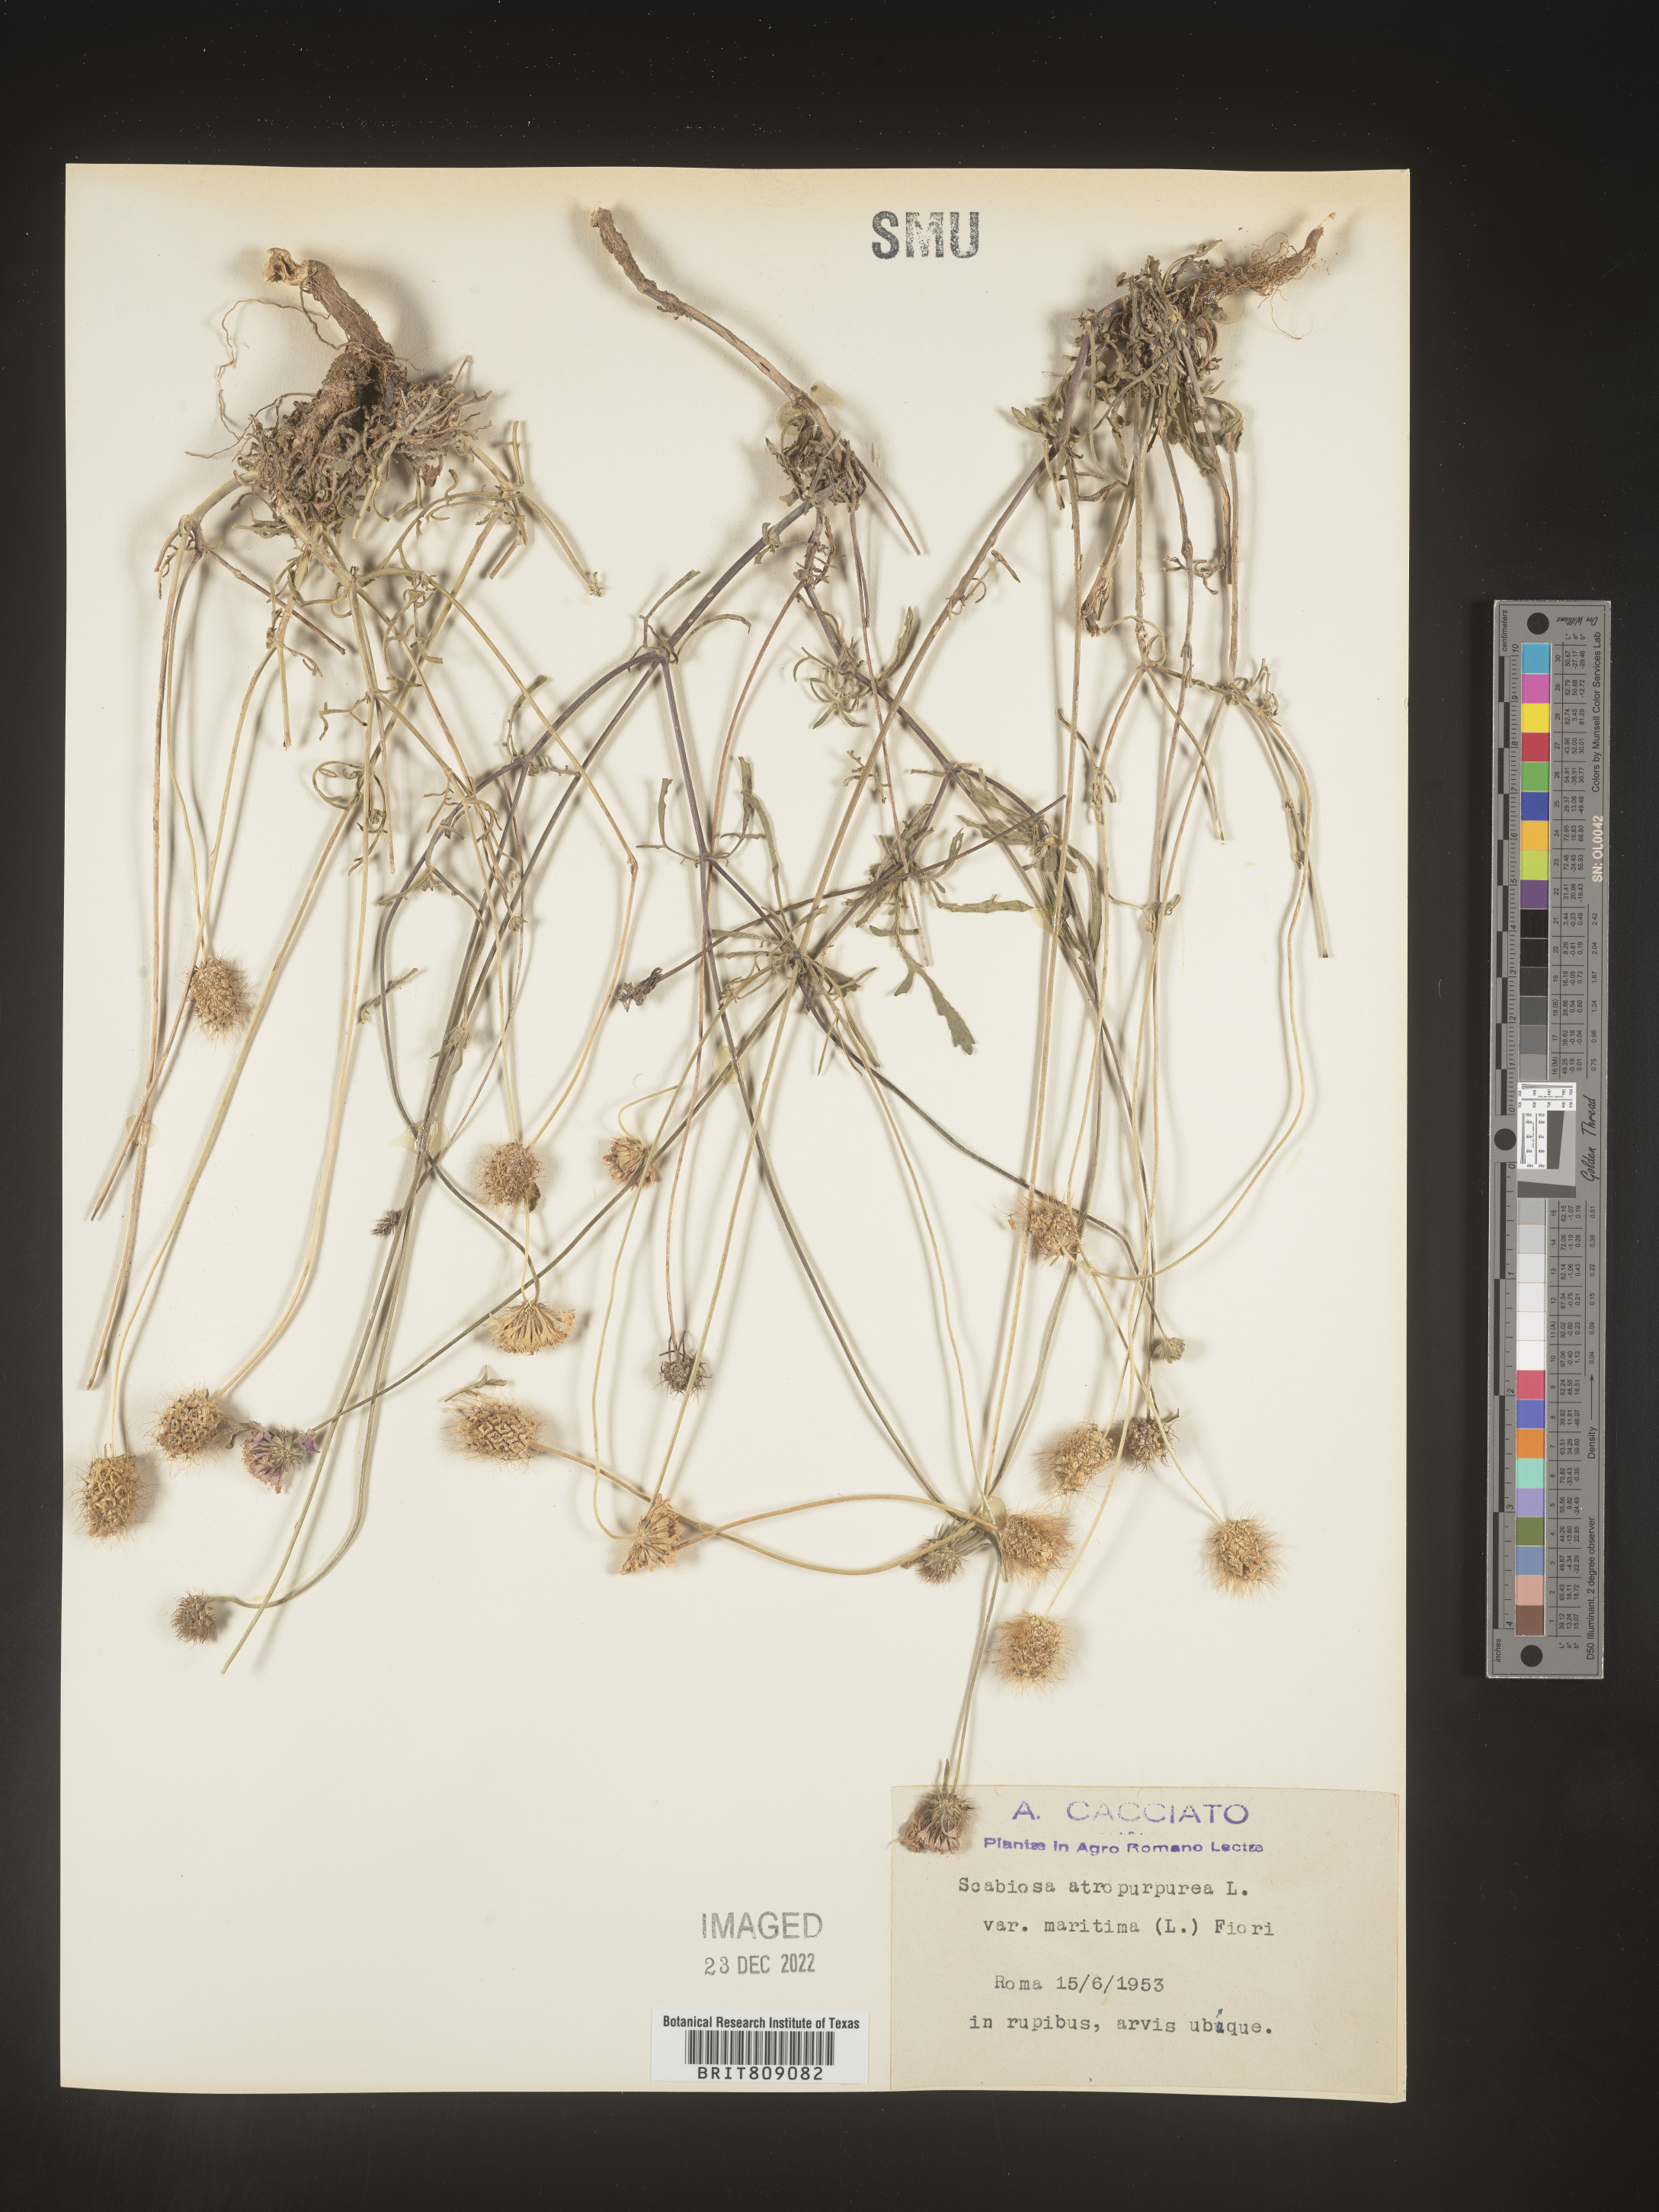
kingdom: Plantae
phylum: Tracheophyta
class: Magnoliopsida
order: Dipsacales
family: Caprifoliaceae
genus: Scabiosa
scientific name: Scabiosa
